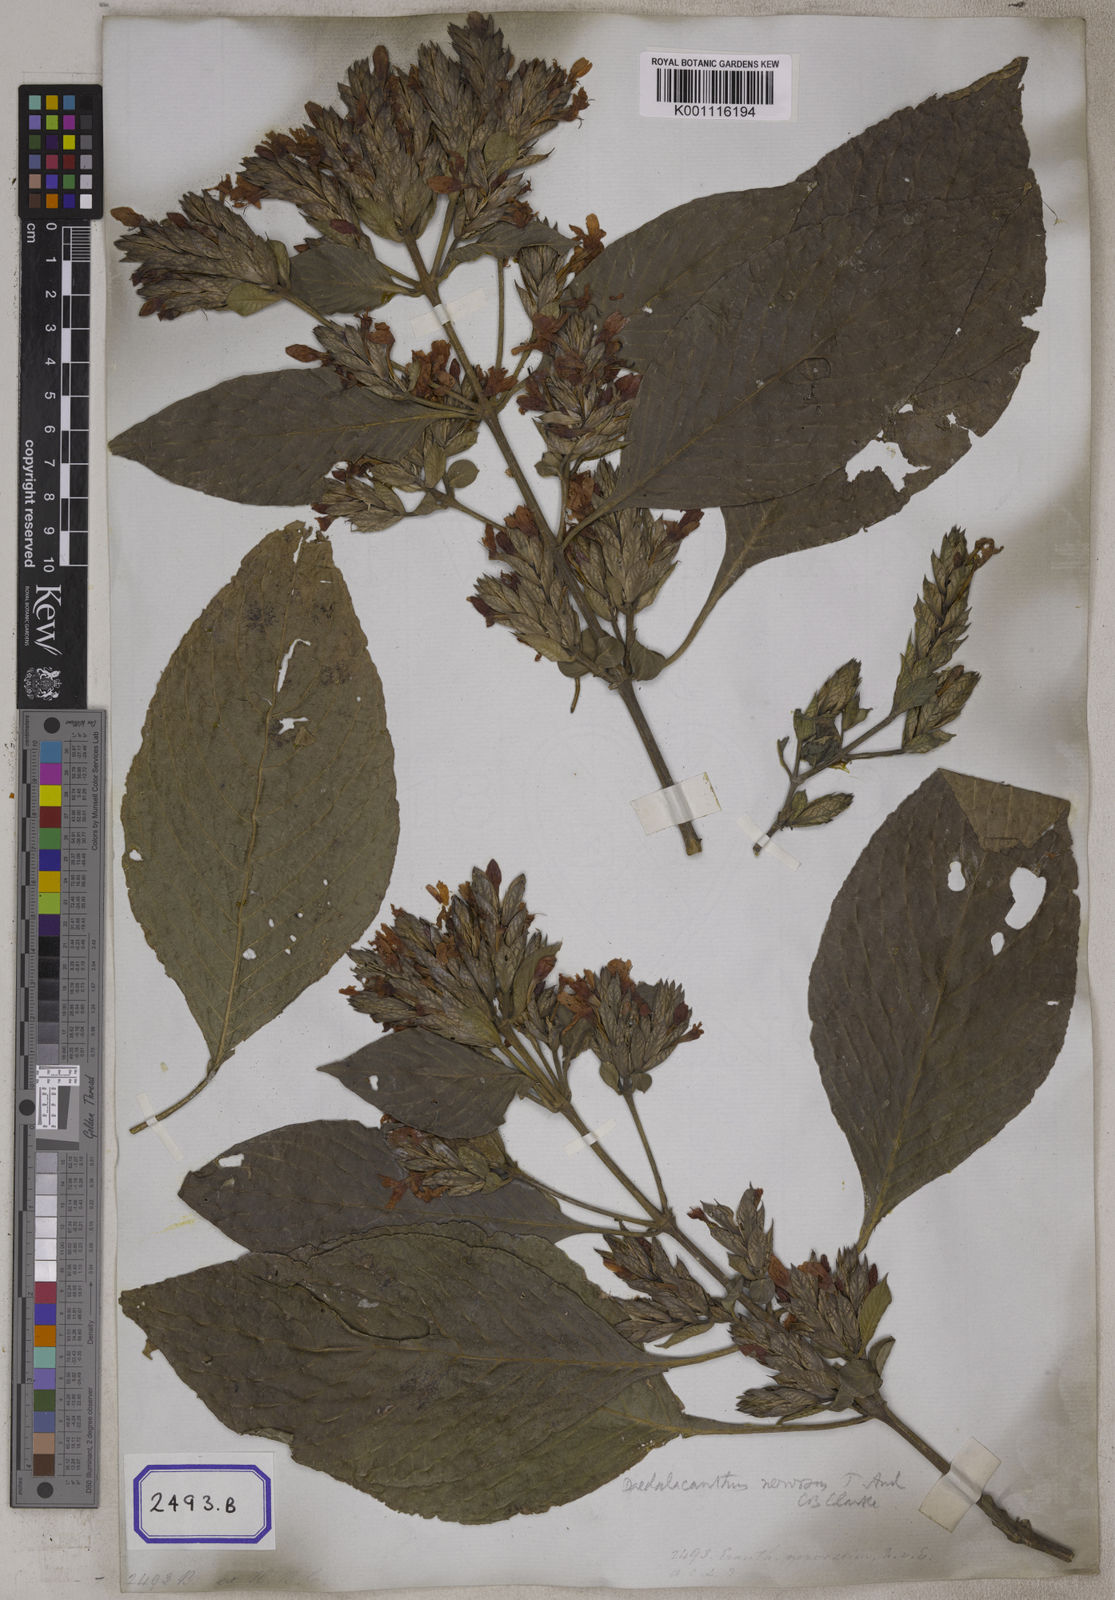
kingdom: Plantae
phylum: Tracheophyta
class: Magnoliopsida
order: Lamiales
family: Acanthaceae
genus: Eranthemum
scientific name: Eranthemum
